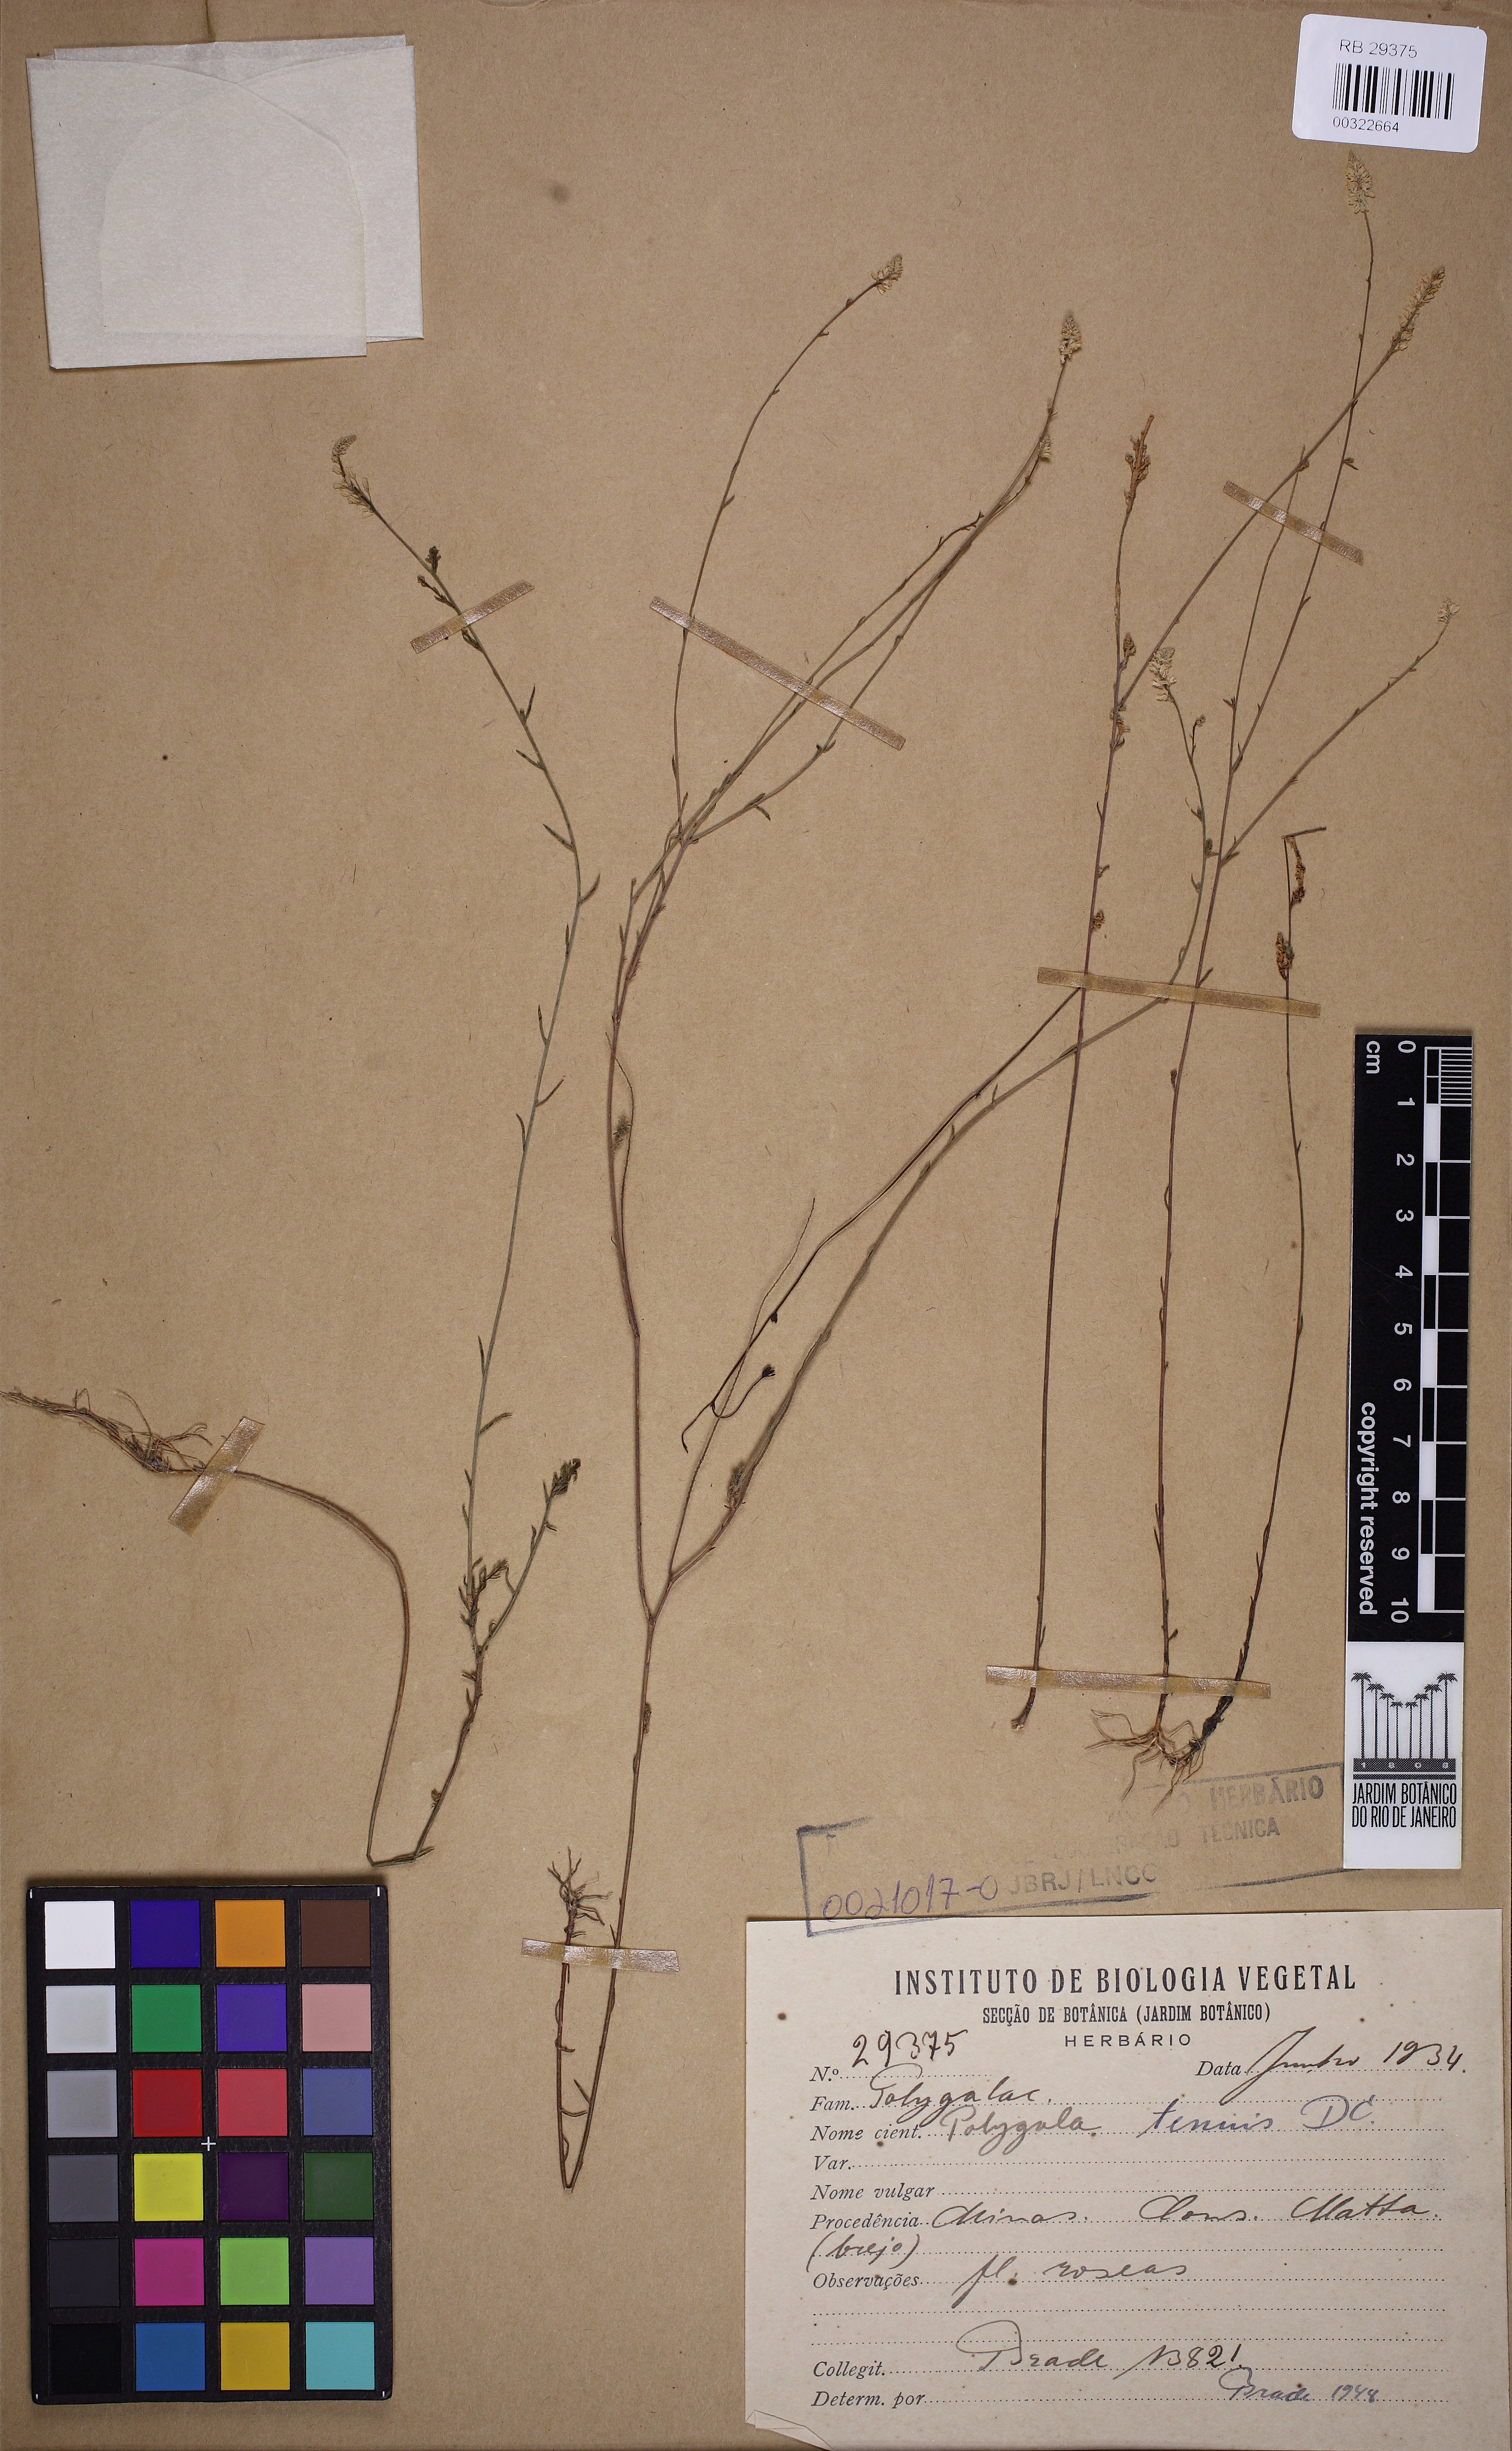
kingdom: Plantae
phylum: Tracheophyta
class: Magnoliopsida
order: Fabales
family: Polygalaceae
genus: Polygala
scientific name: Polygala tenuis
